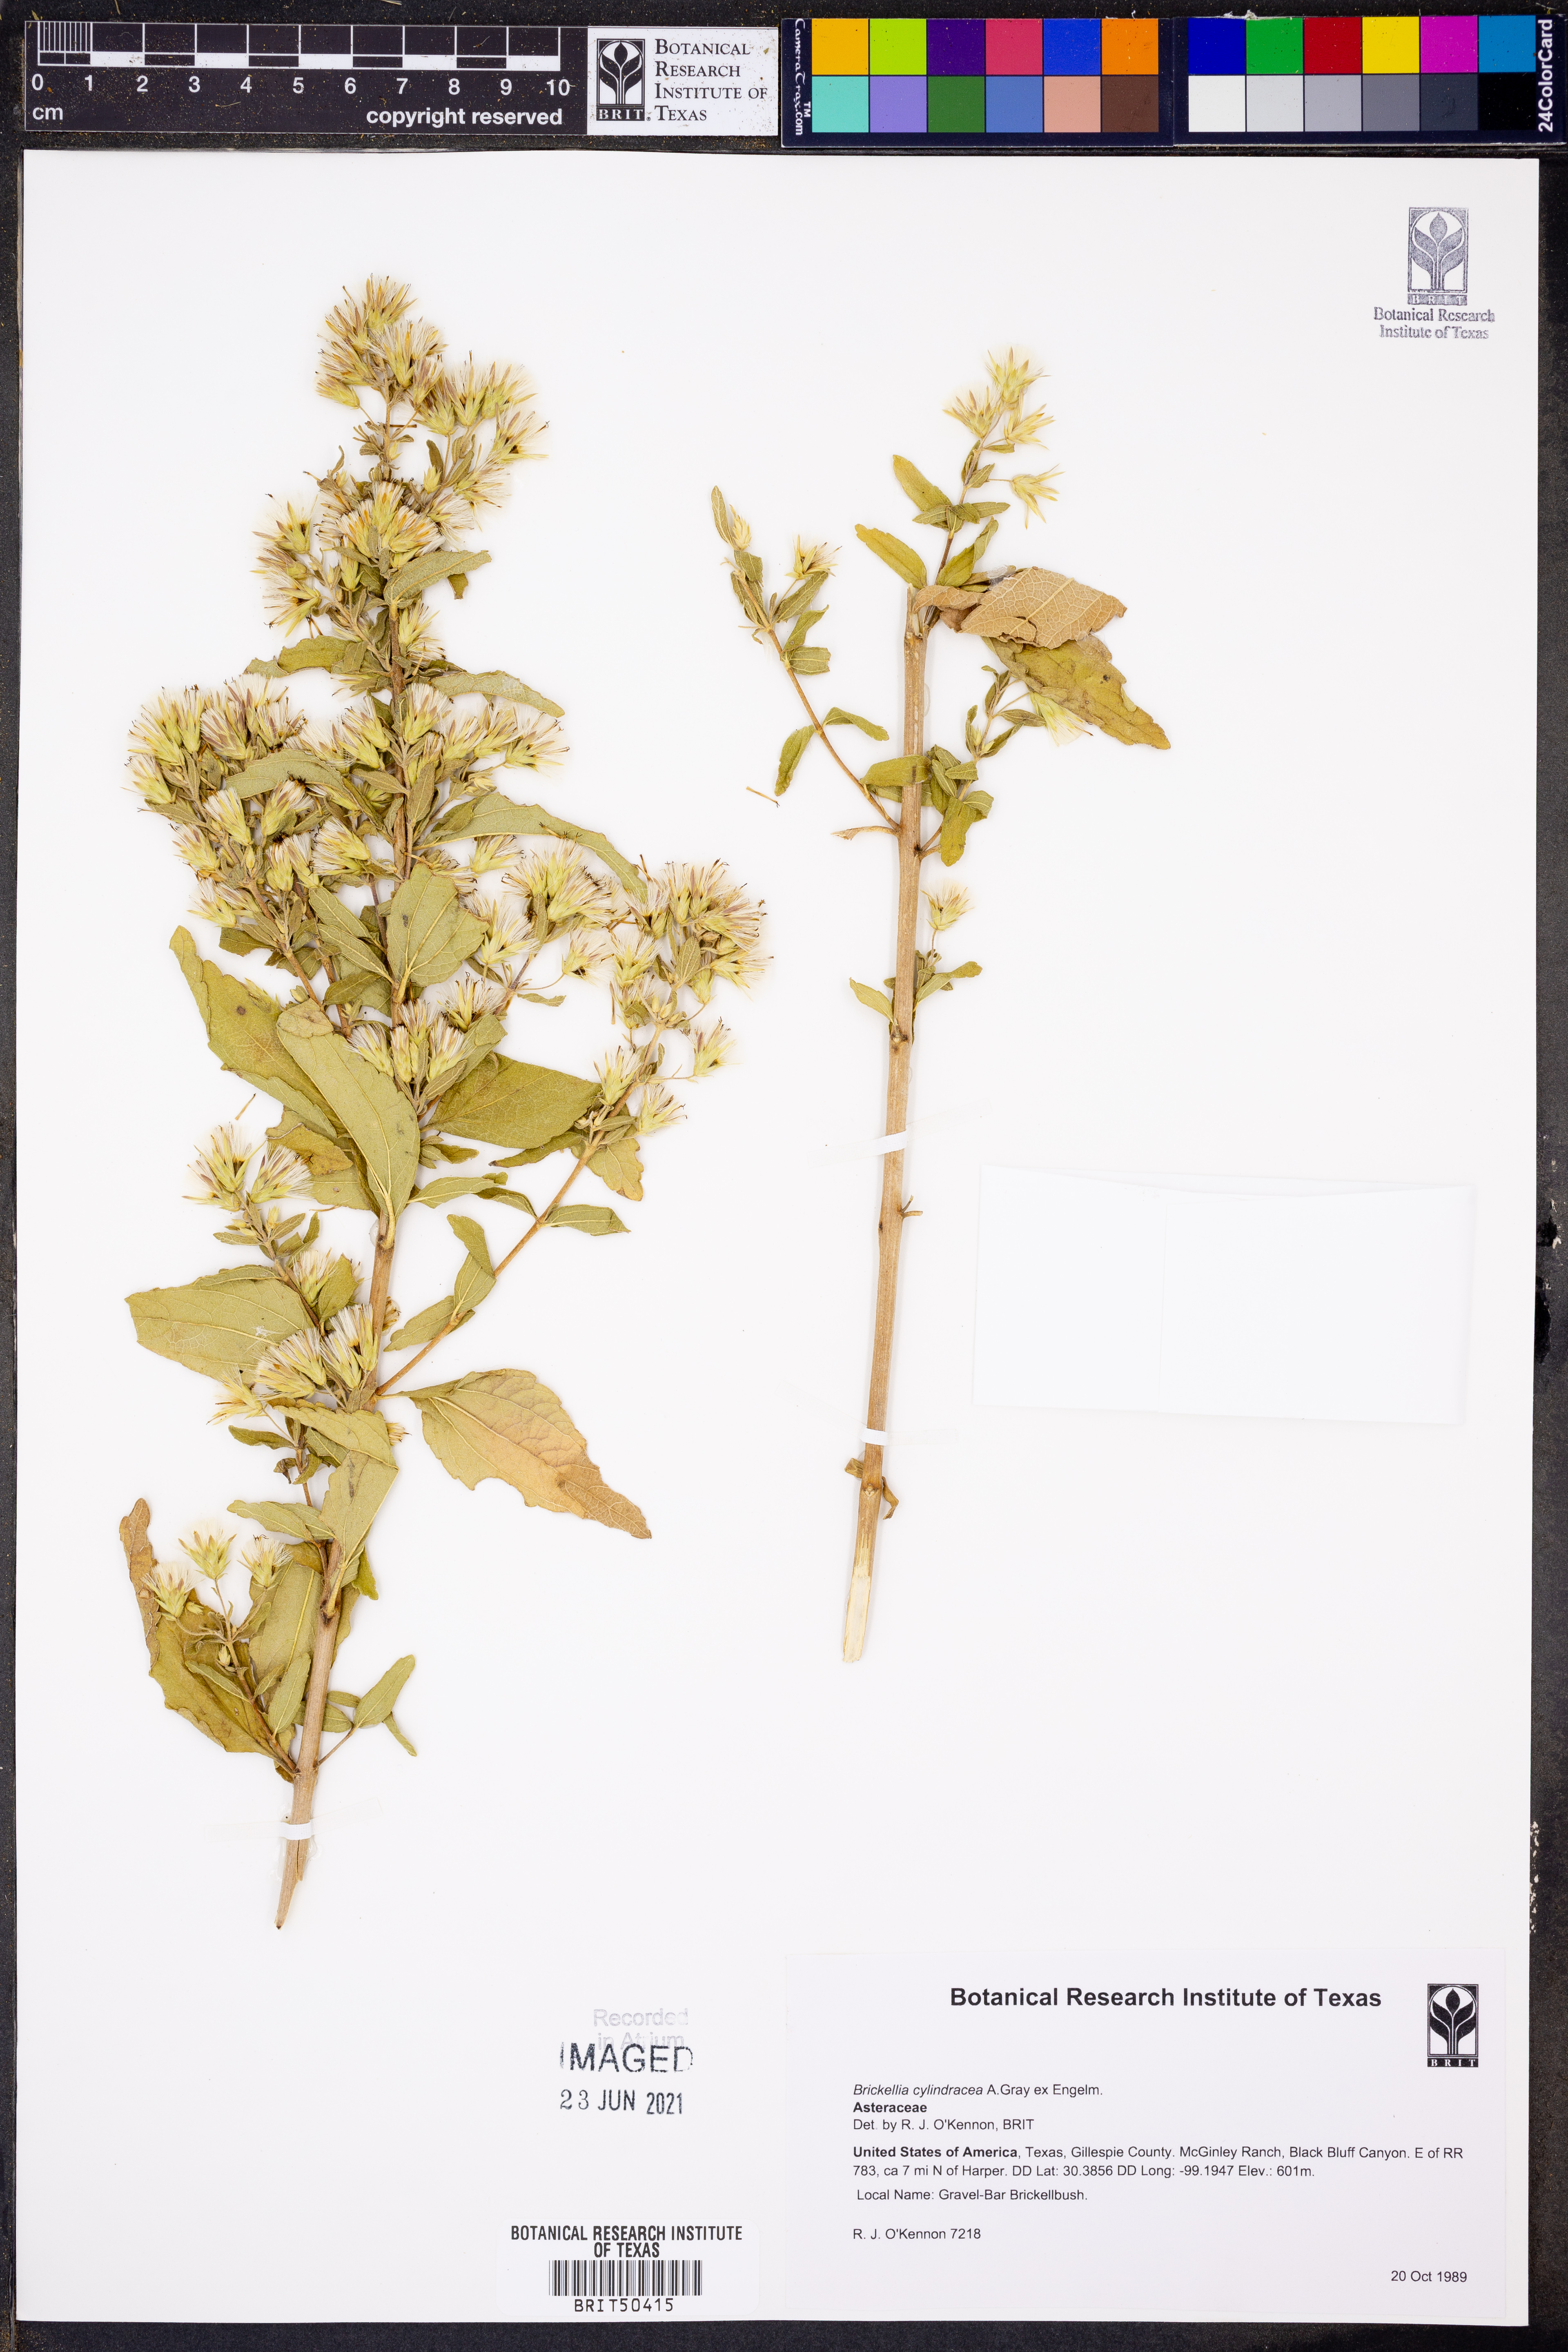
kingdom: Plantae
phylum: Tracheophyta
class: Magnoliopsida
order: Asterales
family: Asteraceae
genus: Brickellia
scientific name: Brickellia cylindracea
